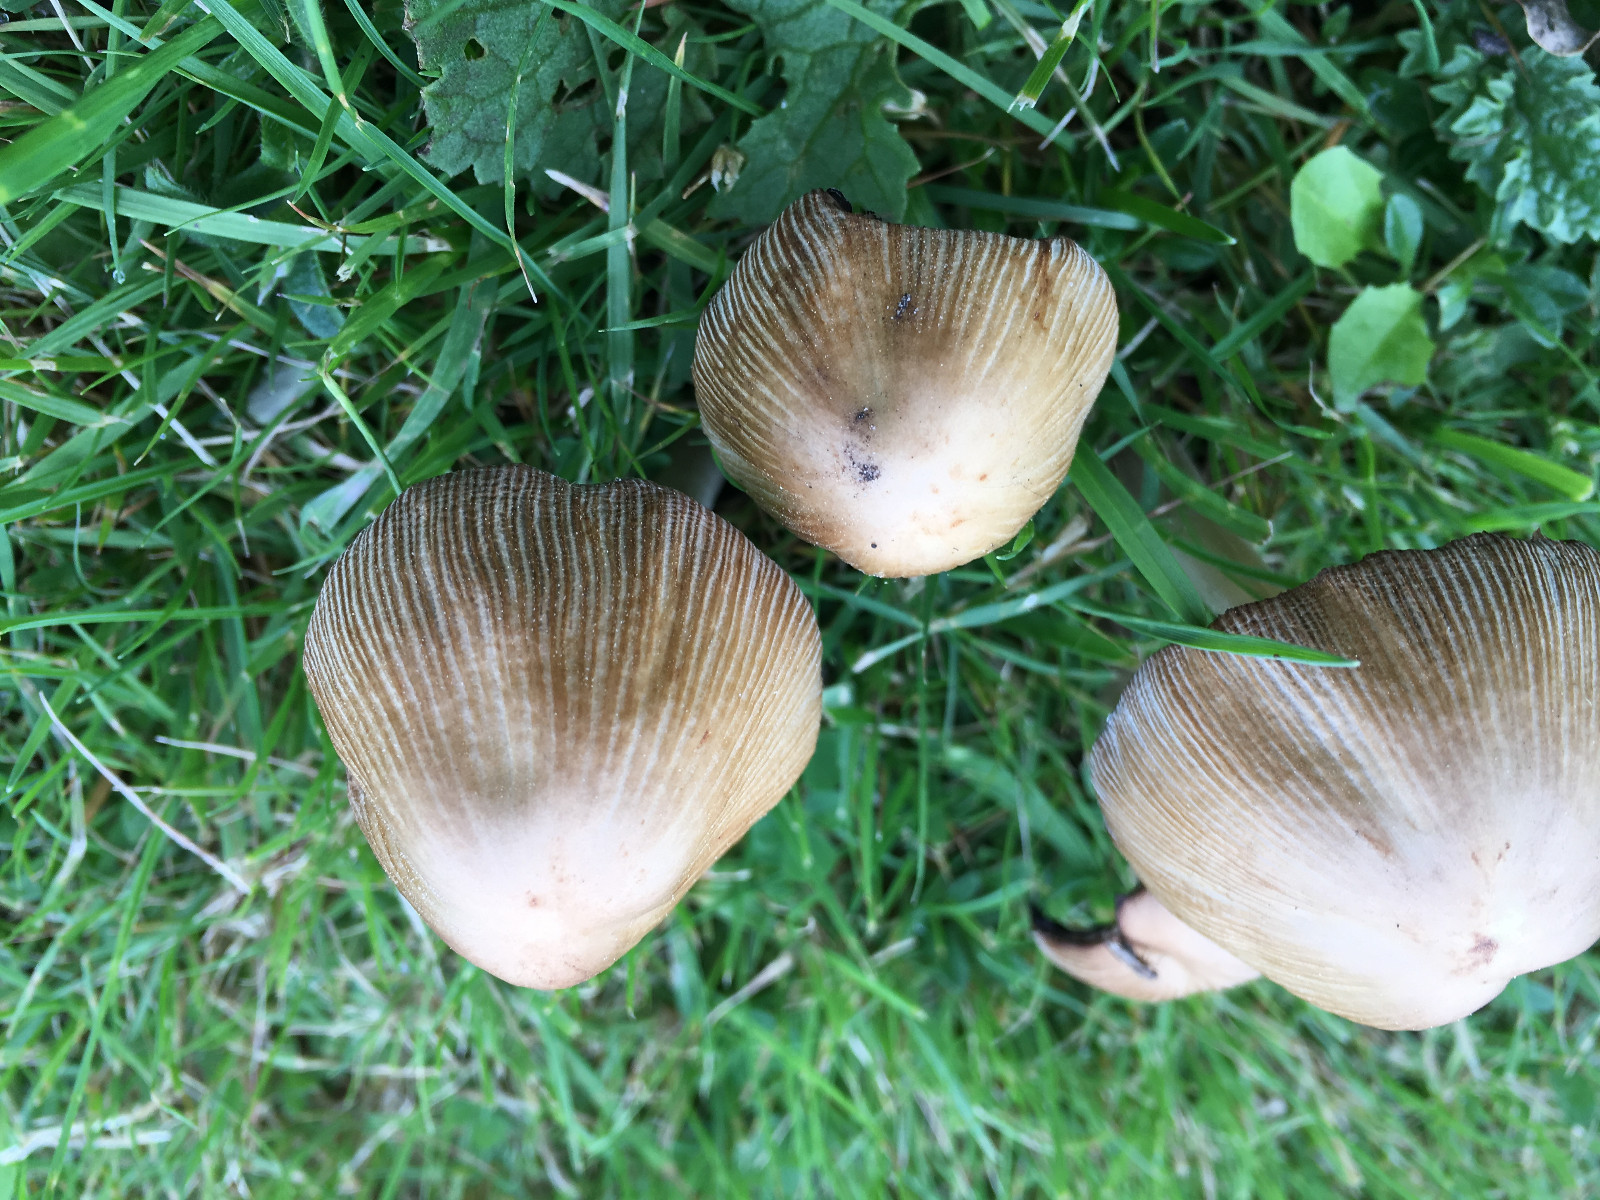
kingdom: Fungi
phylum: Basidiomycota
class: Agaricomycetes
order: Agaricales
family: Psathyrellaceae
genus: Coprinellus
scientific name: Coprinellus micaceus
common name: glimmer-blækhat
